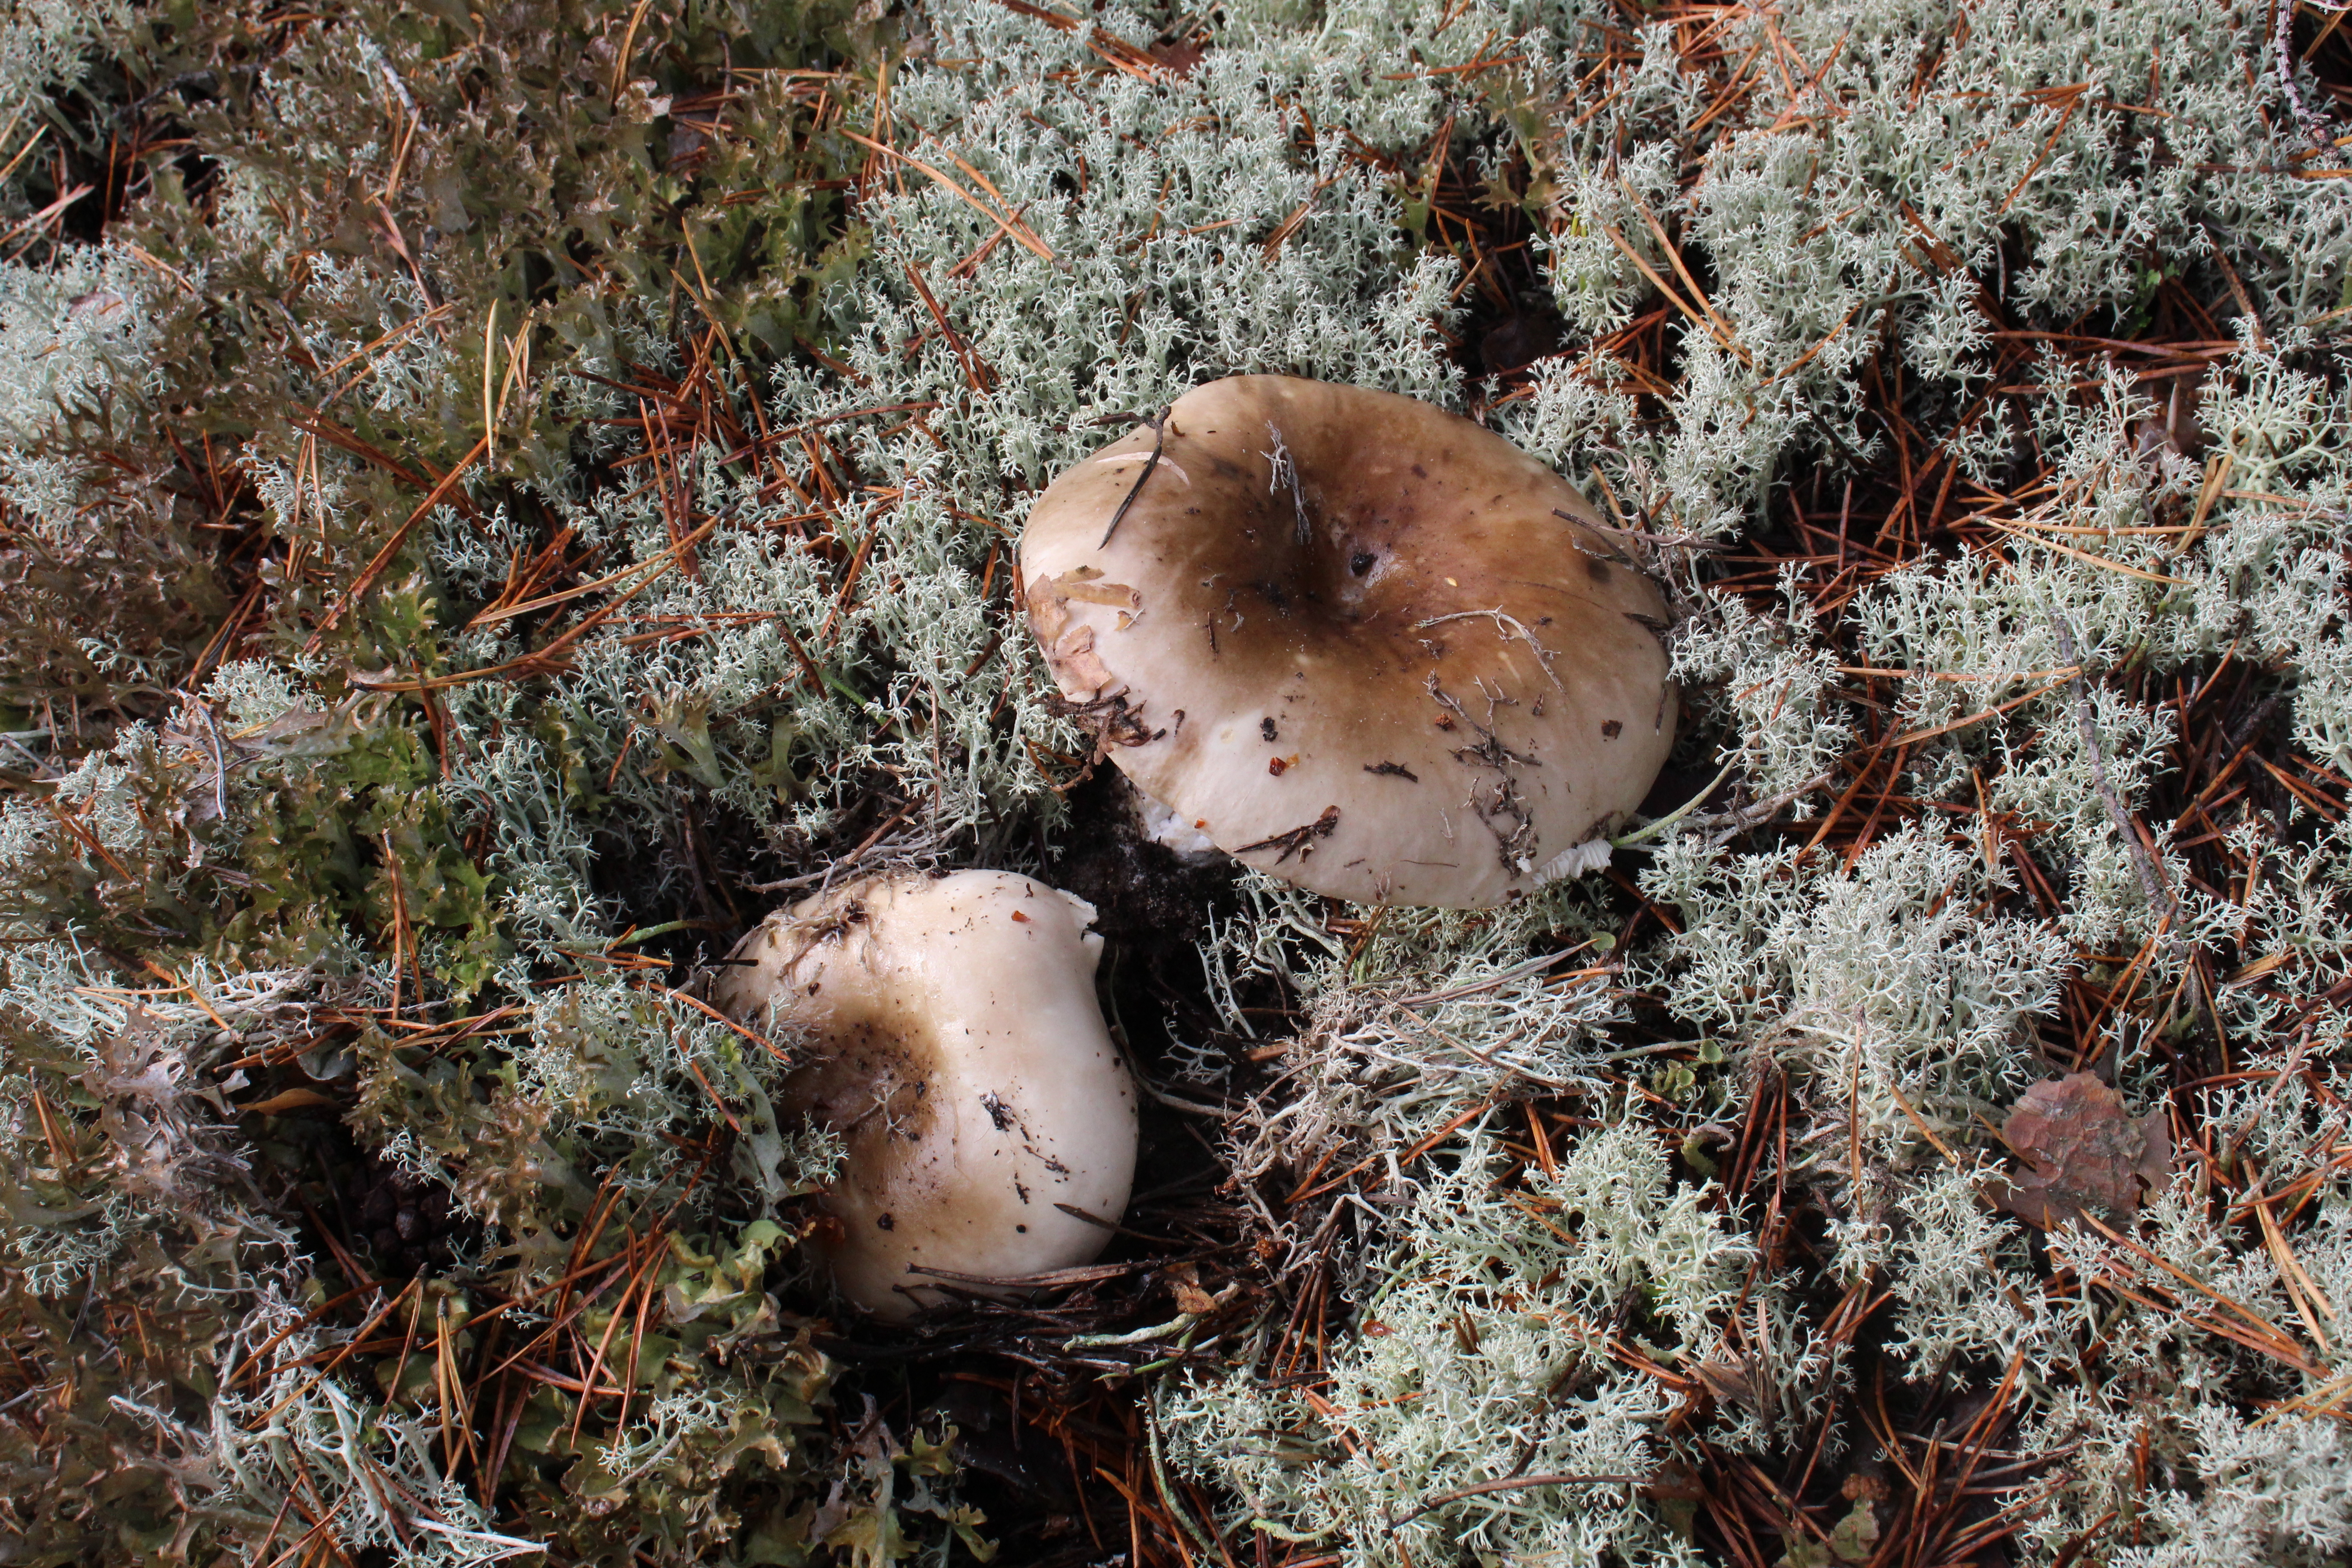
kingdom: Fungi
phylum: Basidiomycota
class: Agaricomycetes
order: Russulales
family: Russulaceae
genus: Russula
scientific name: Russula
